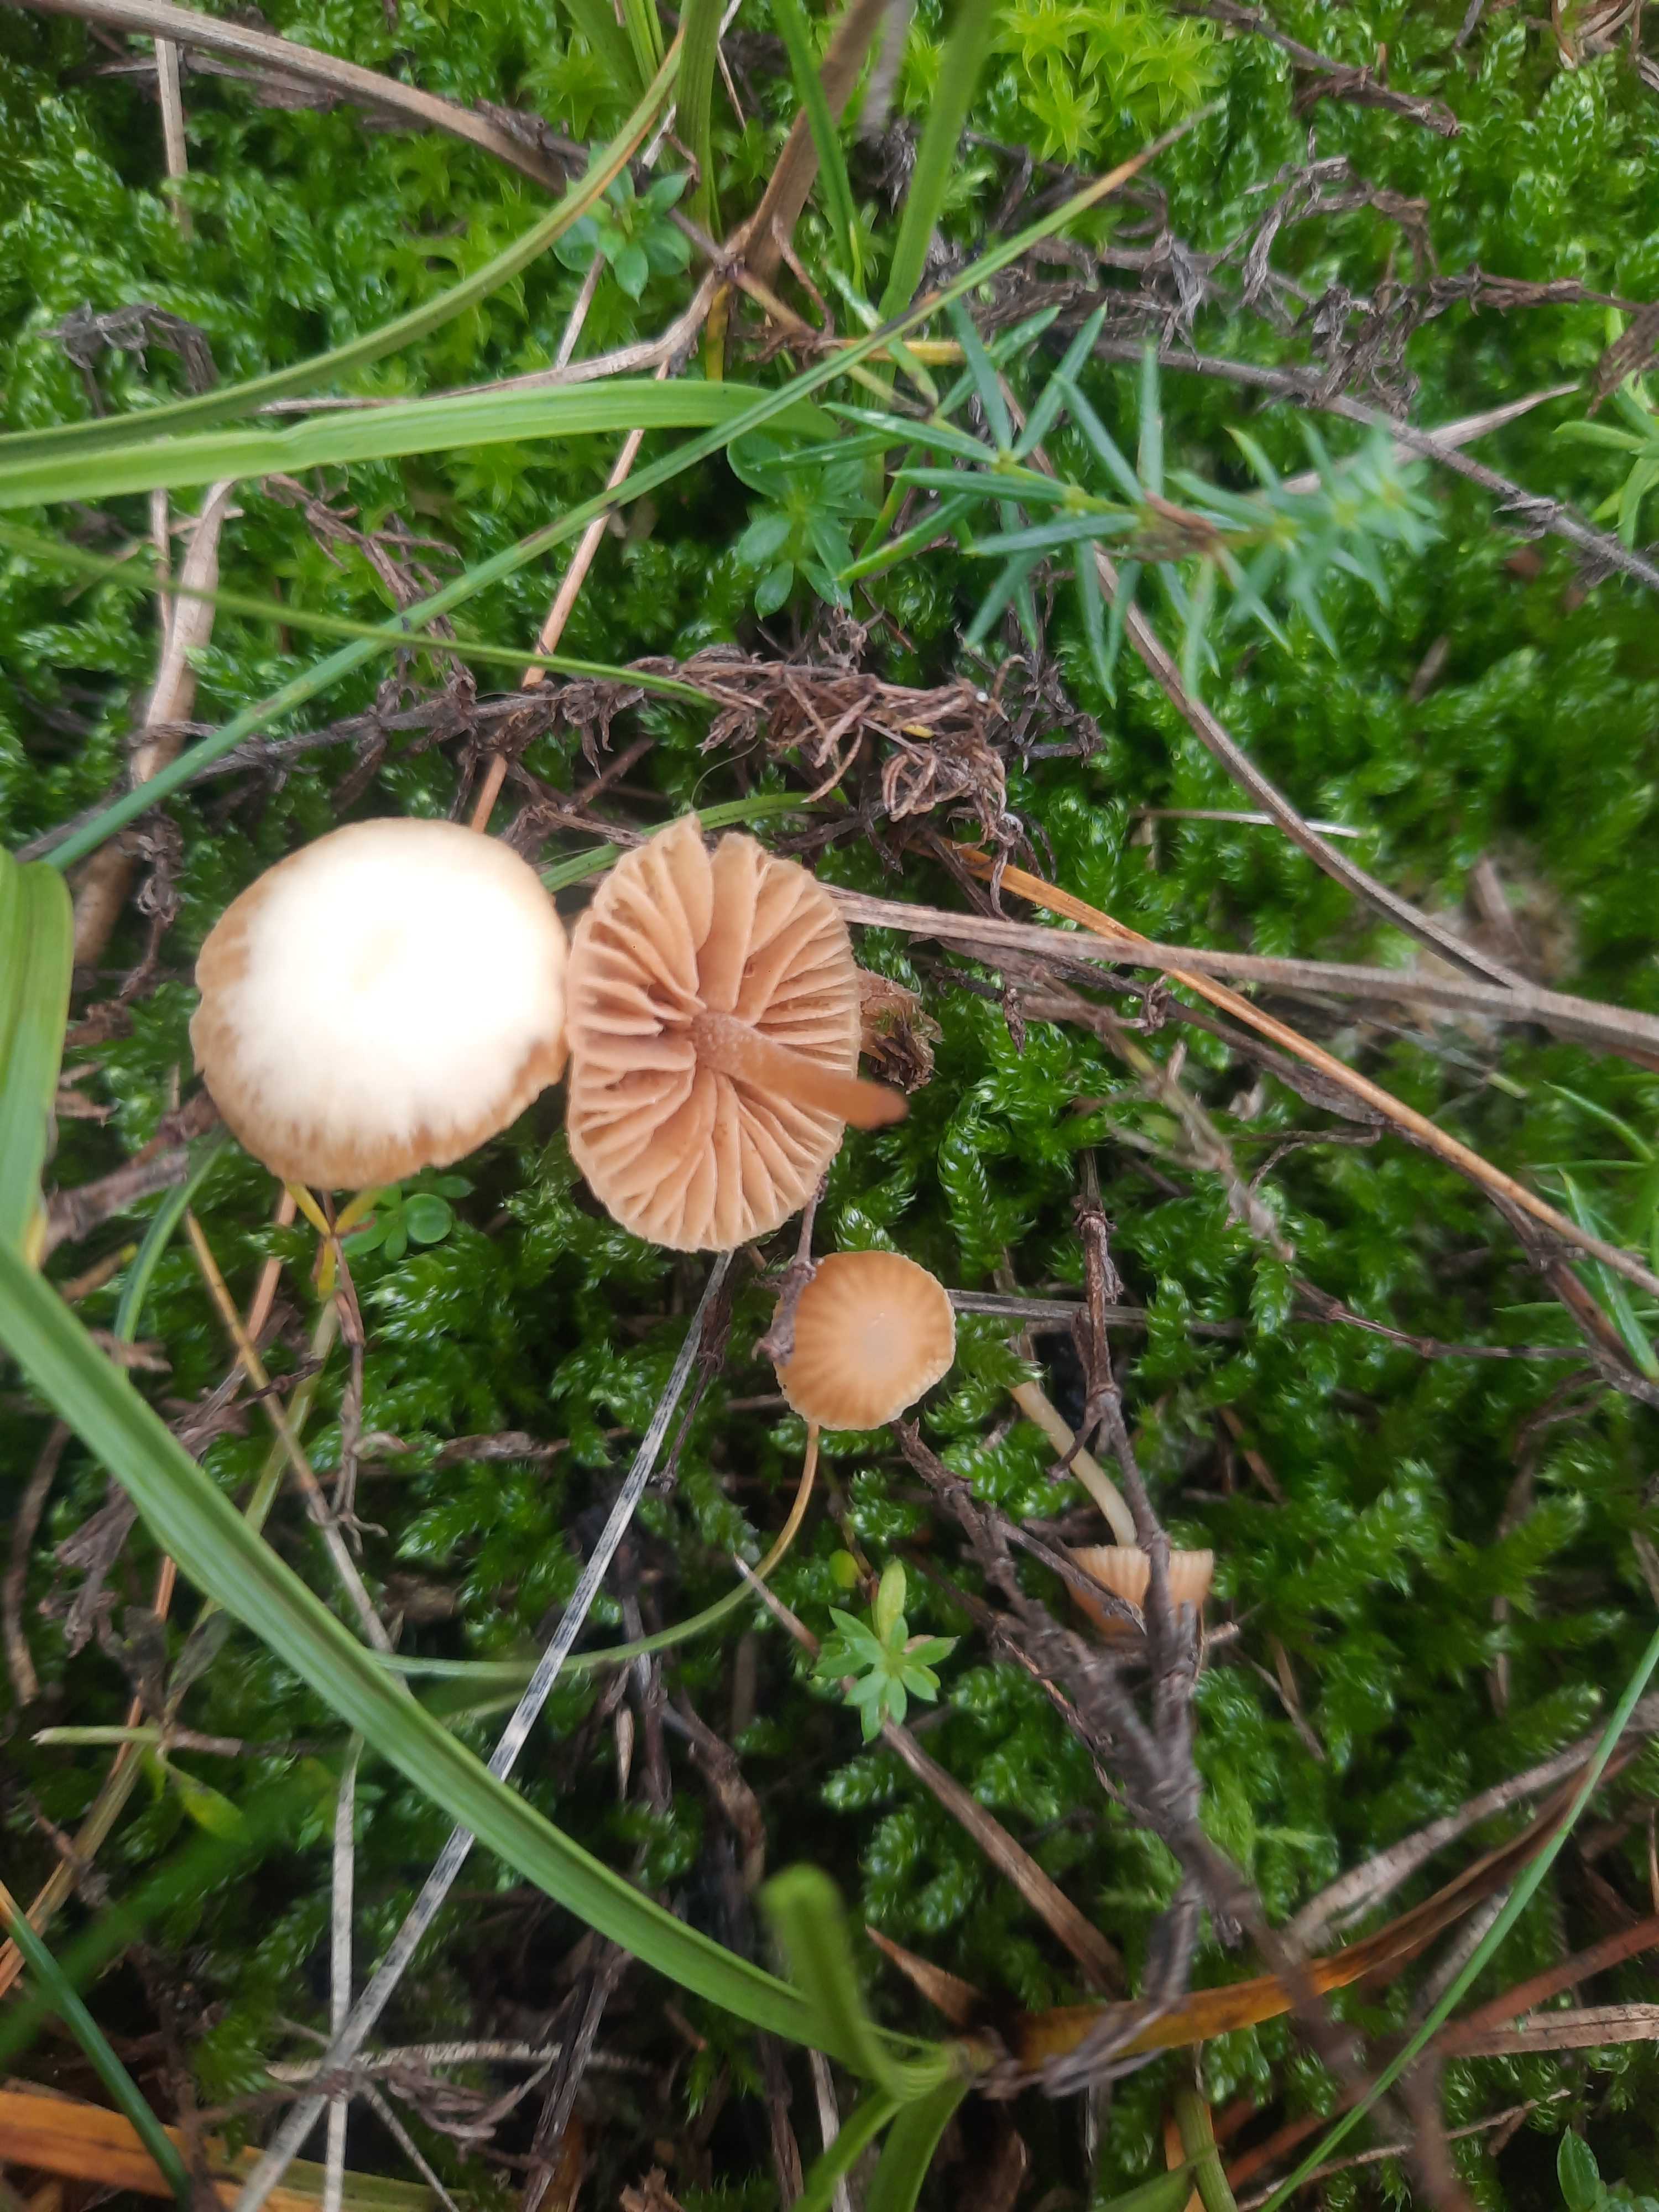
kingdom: Fungi
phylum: Basidiomycota
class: Agaricomycetes
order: Agaricales
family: Hymenogastraceae
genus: Galerina
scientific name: Galerina
